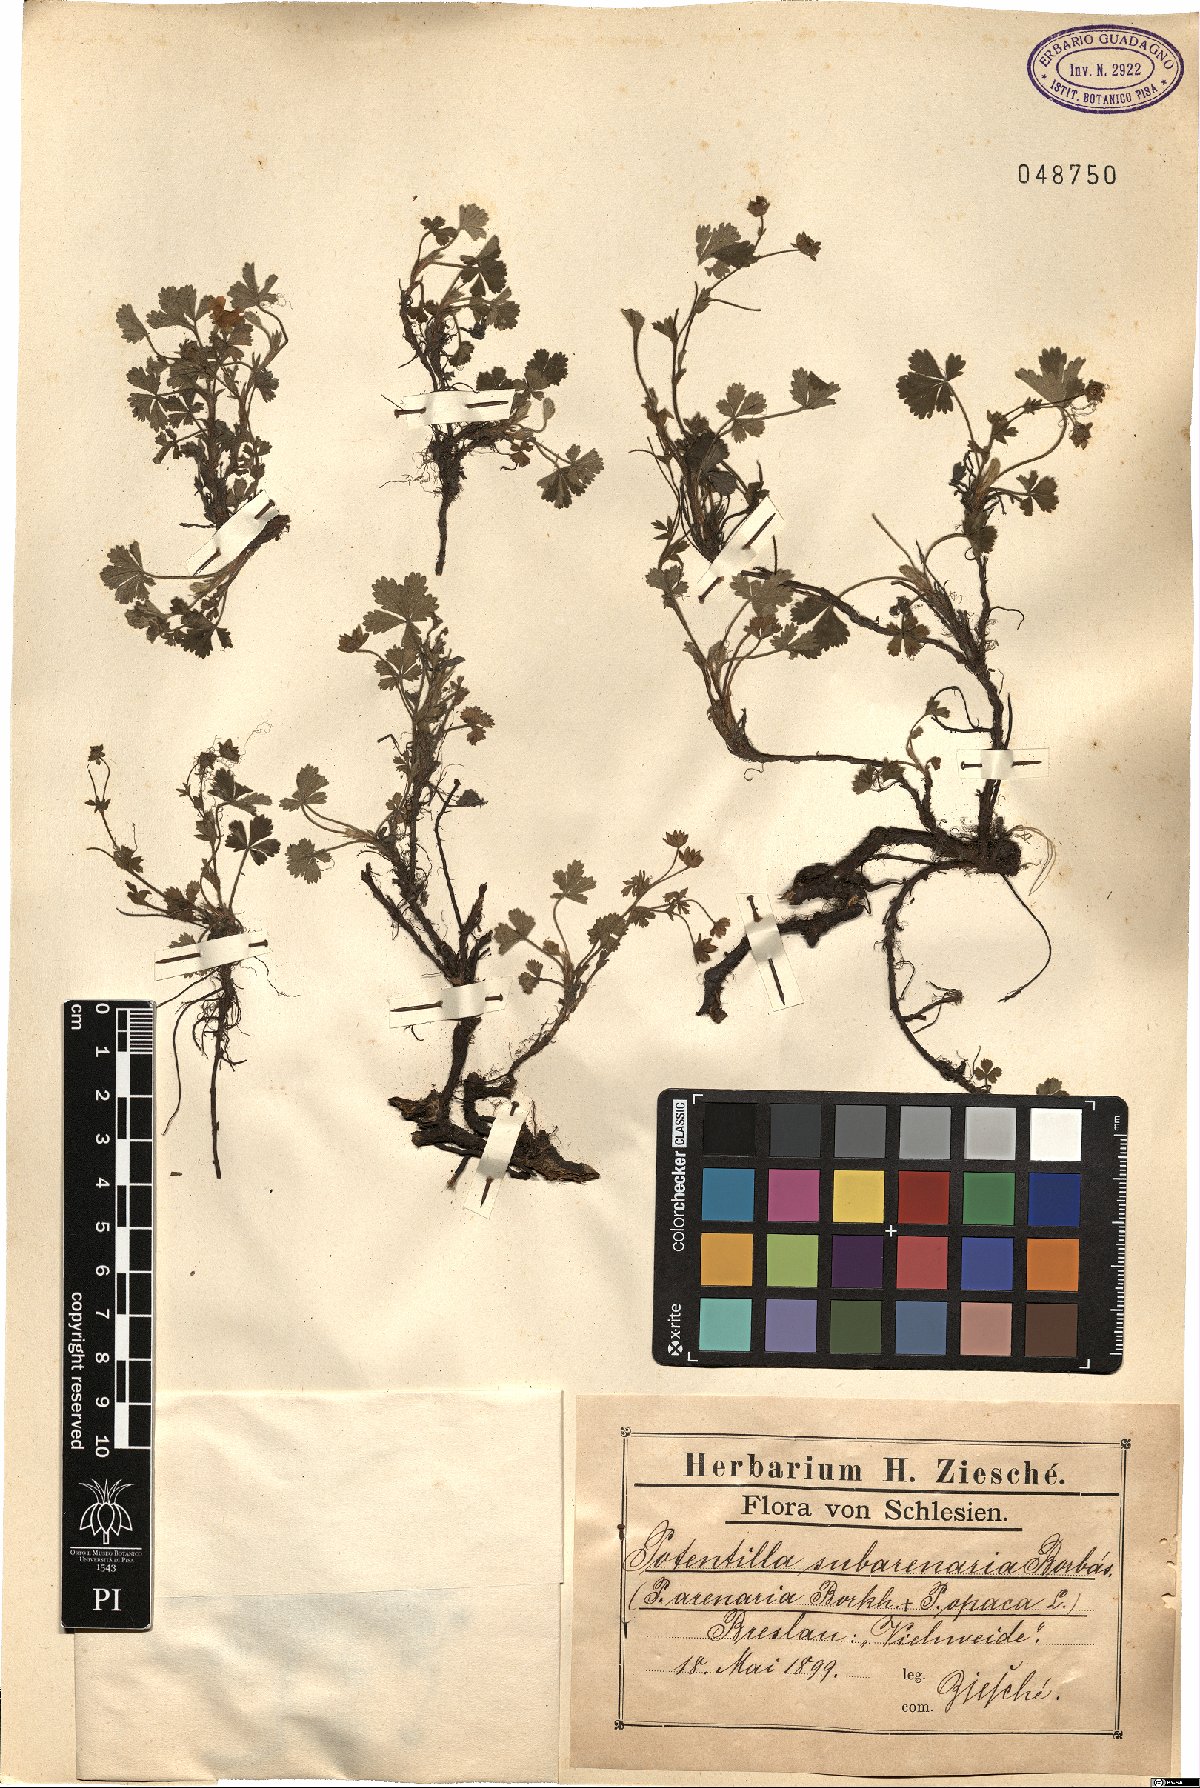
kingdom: Plantae
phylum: Tracheophyta
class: Magnoliopsida
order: Rosales
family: Rosaceae
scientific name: Rosaceae
